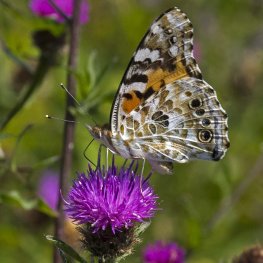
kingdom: Animalia
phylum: Arthropoda
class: Insecta
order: Lepidoptera
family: Nymphalidae
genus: Vanessa
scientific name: Vanessa cardui
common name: Painted Lady
